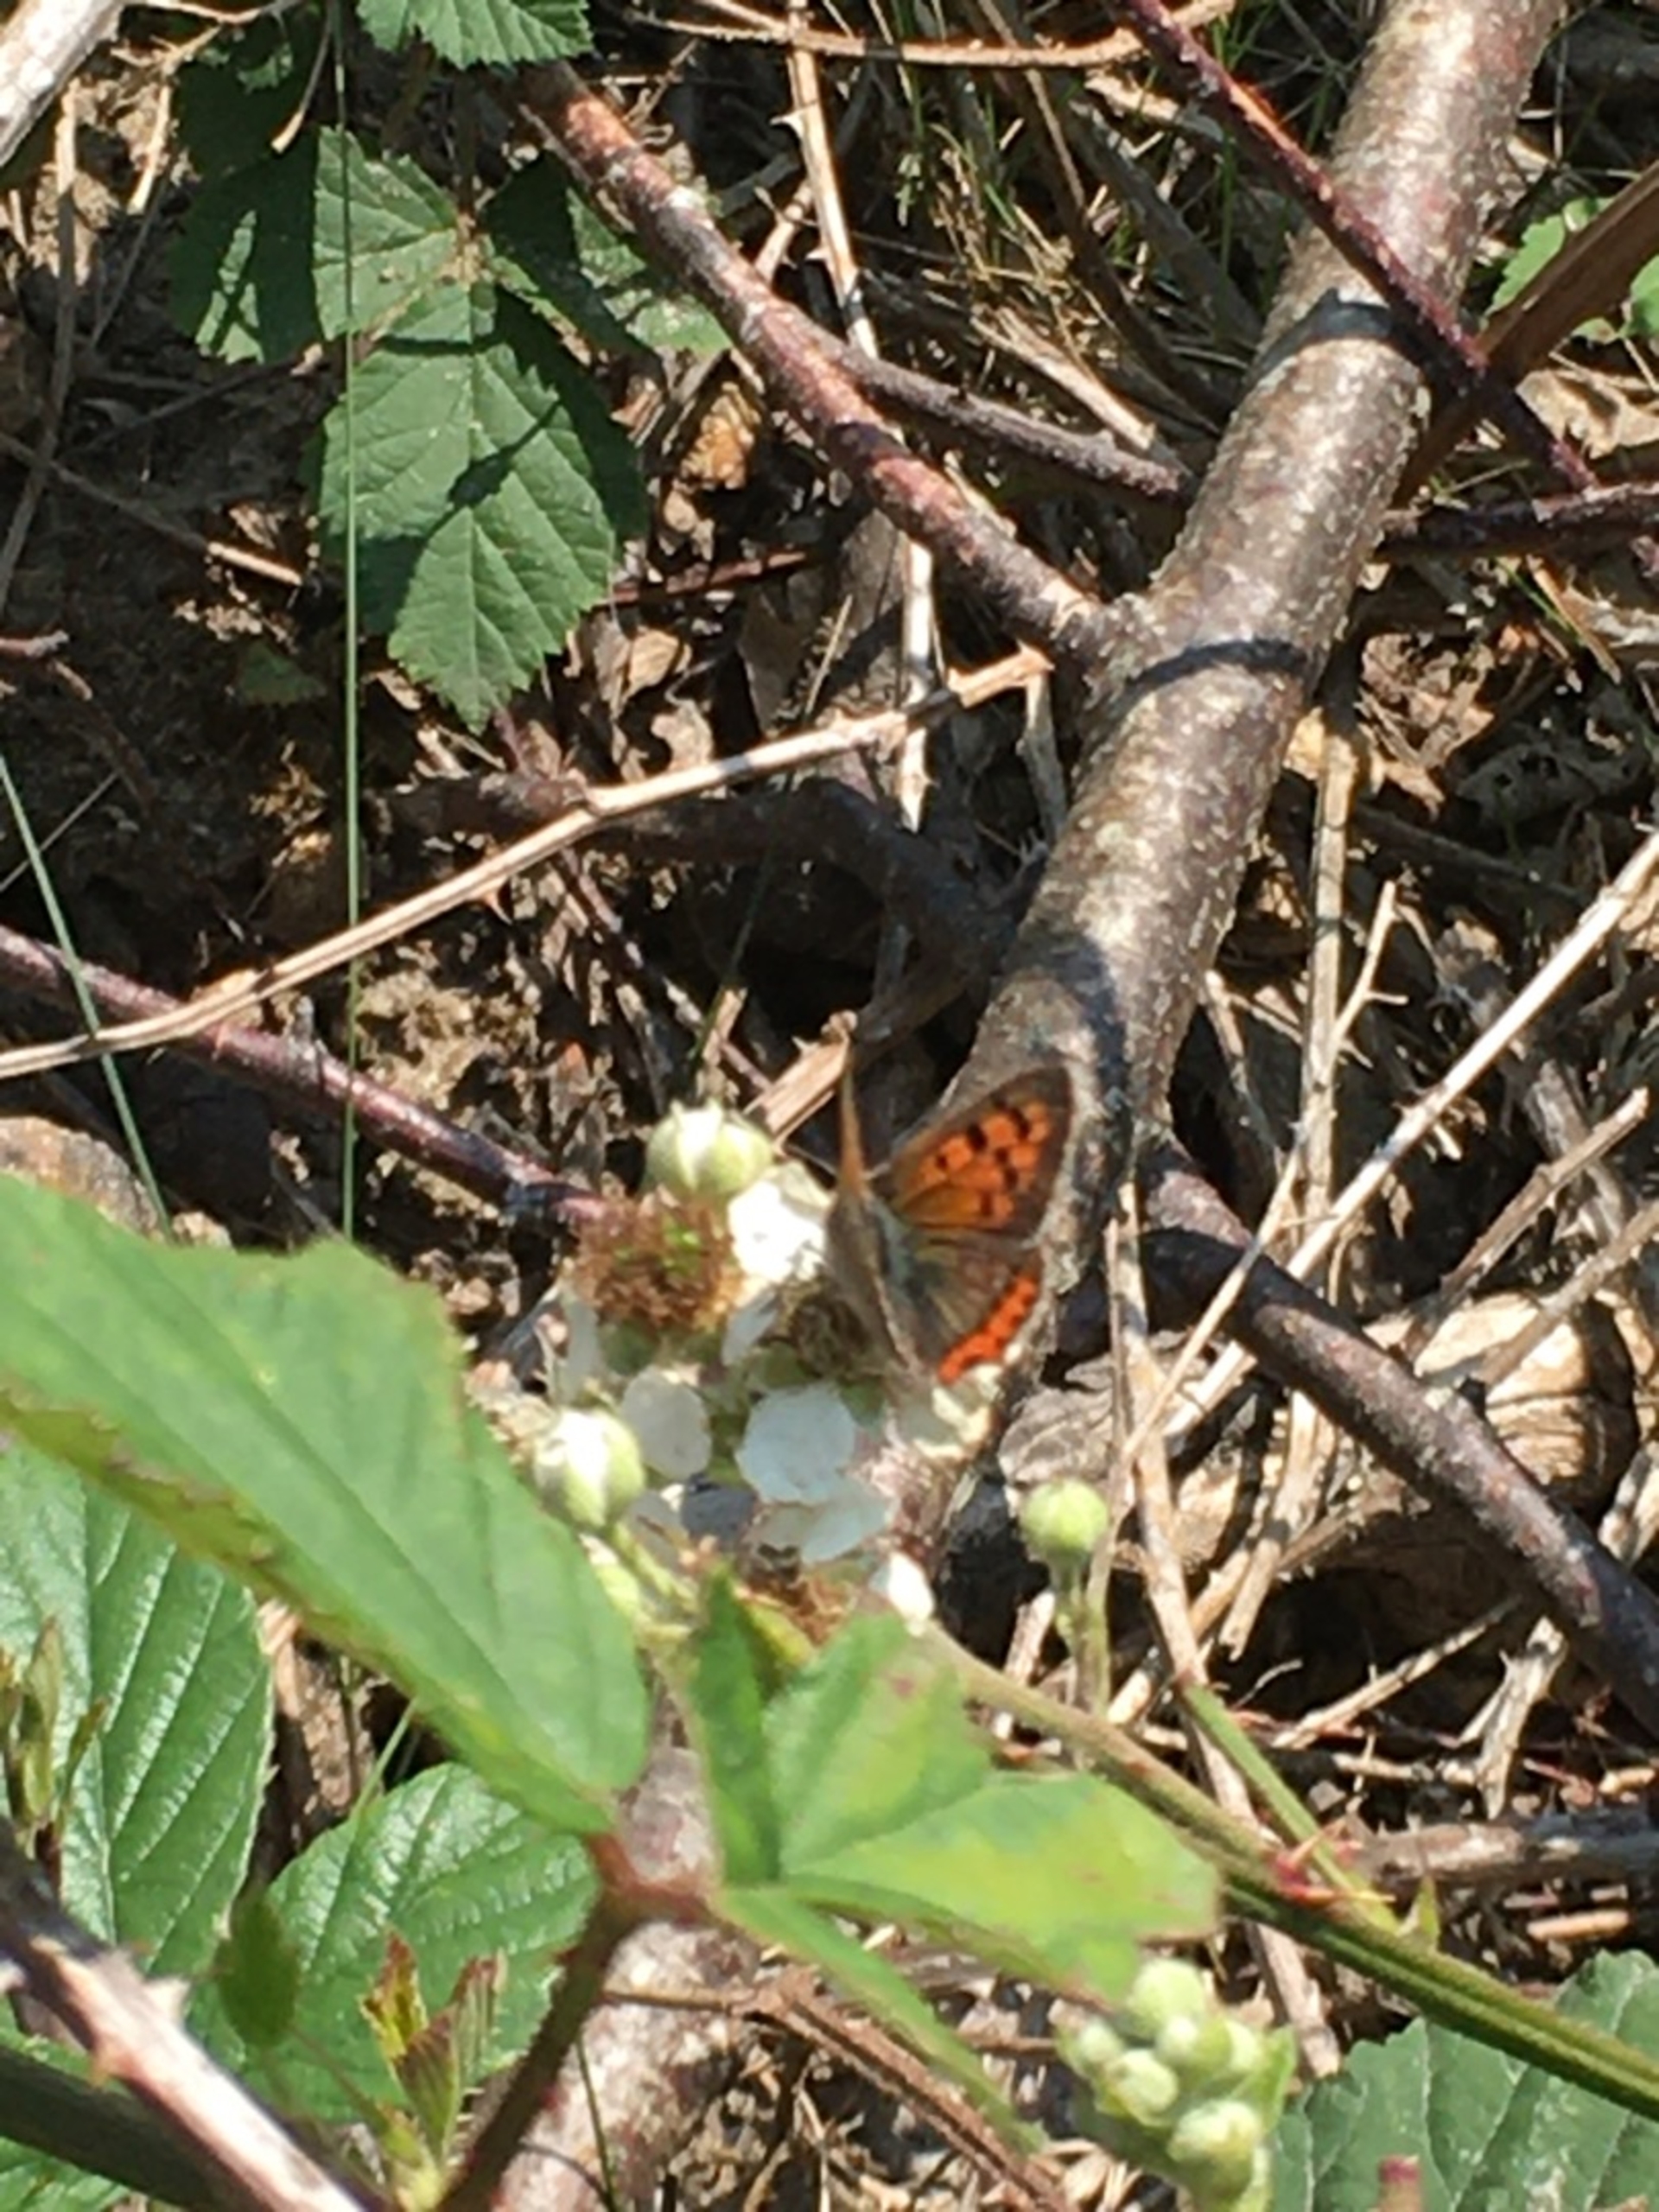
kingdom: Animalia
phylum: Arthropoda
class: Insecta
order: Lepidoptera
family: Lycaenidae
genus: Lycaena
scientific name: Lycaena phlaeas
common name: Lille ildfugl
